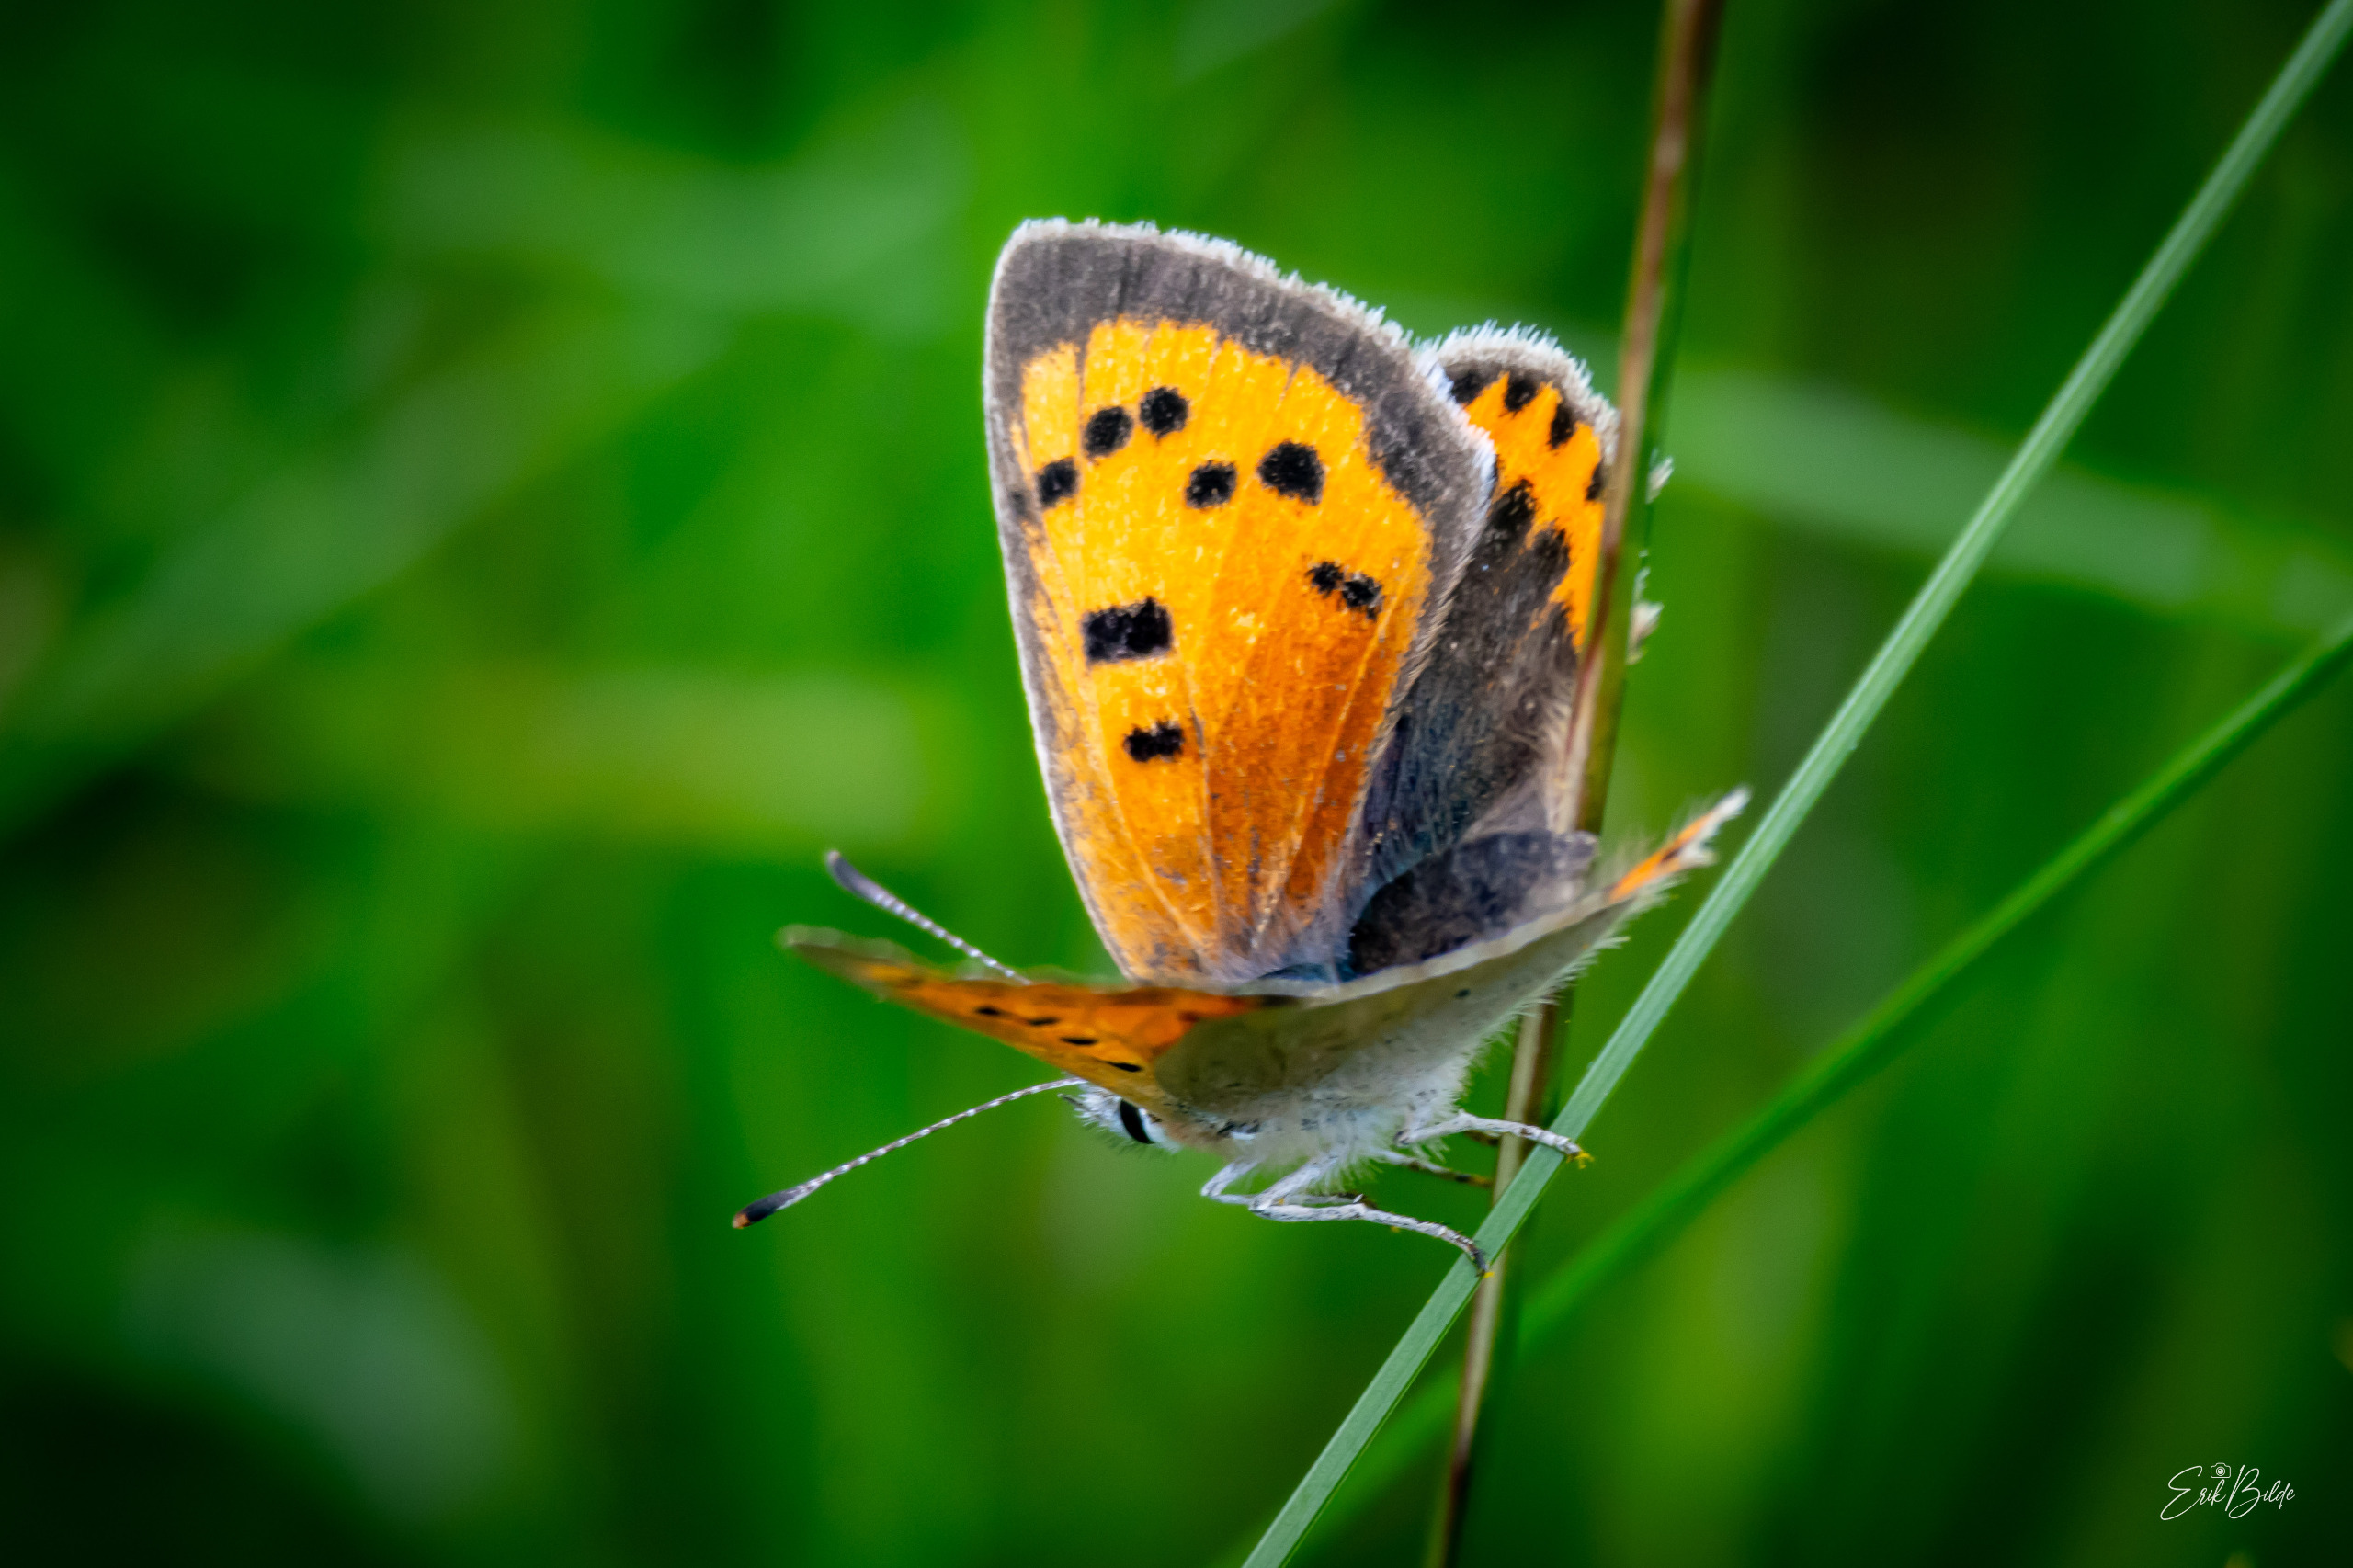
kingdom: Animalia
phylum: Arthropoda
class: Insecta
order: Lepidoptera
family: Lycaenidae
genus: Lycaena
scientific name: Lycaena phlaeas
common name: Lille ildfugl
